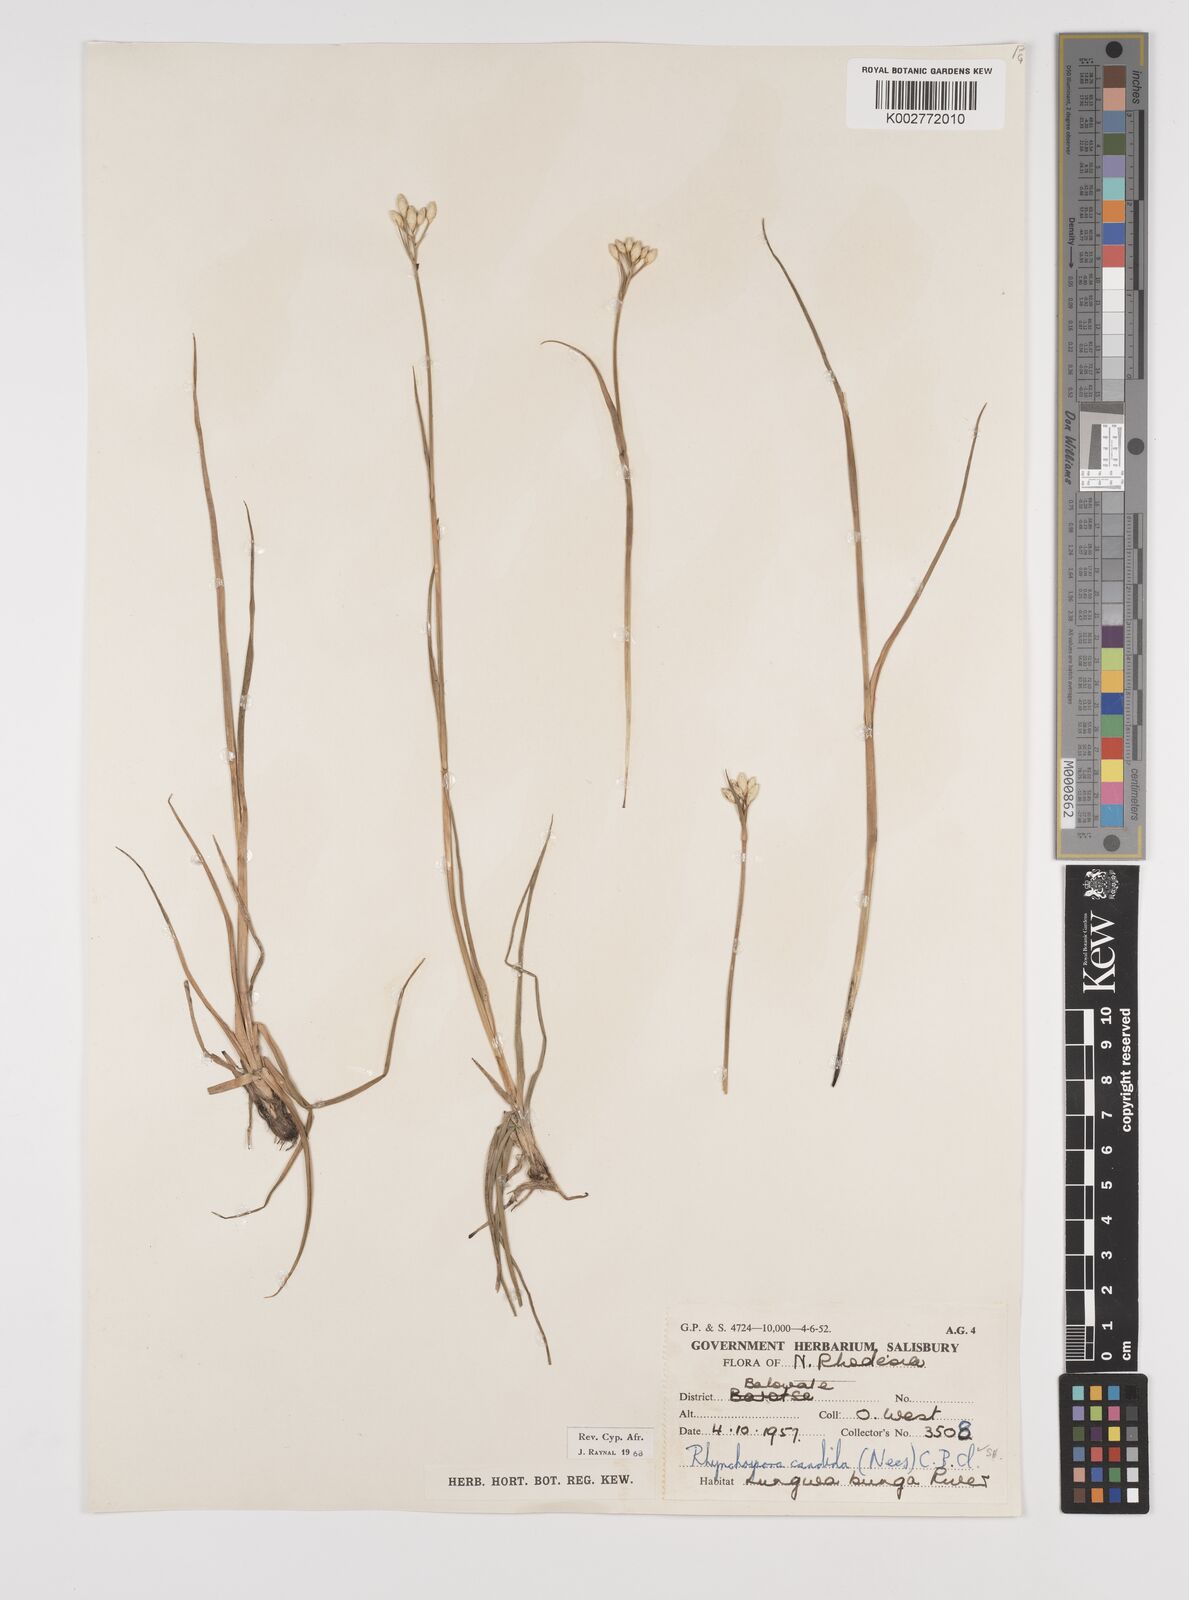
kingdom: Plantae
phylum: Tracheophyta
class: Liliopsida
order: Poales
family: Cyperaceae
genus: Rhynchospora
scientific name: Rhynchospora candida
